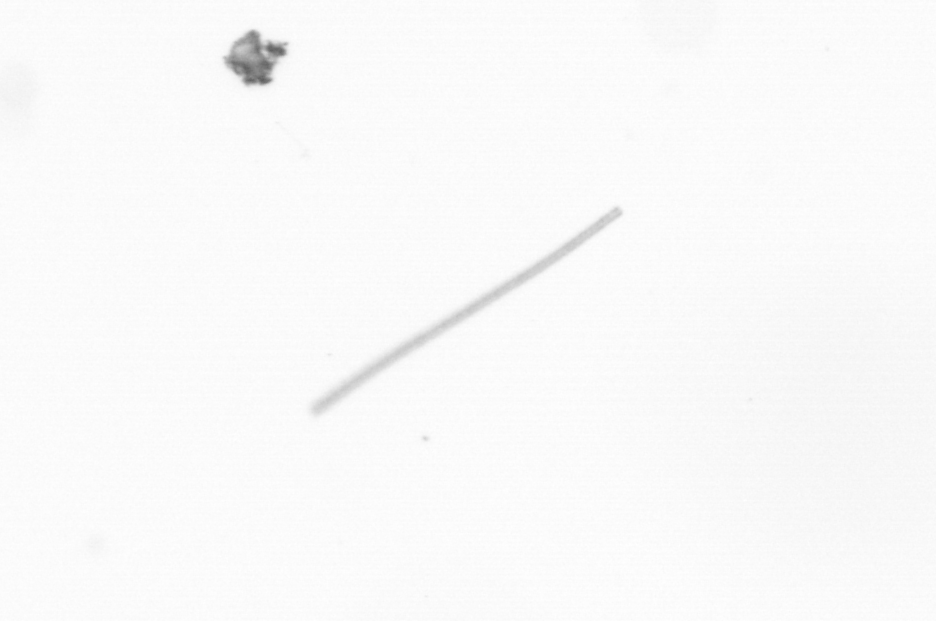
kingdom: Chromista
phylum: Ochrophyta
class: Bacillariophyceae
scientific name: Bacillariophyceae
